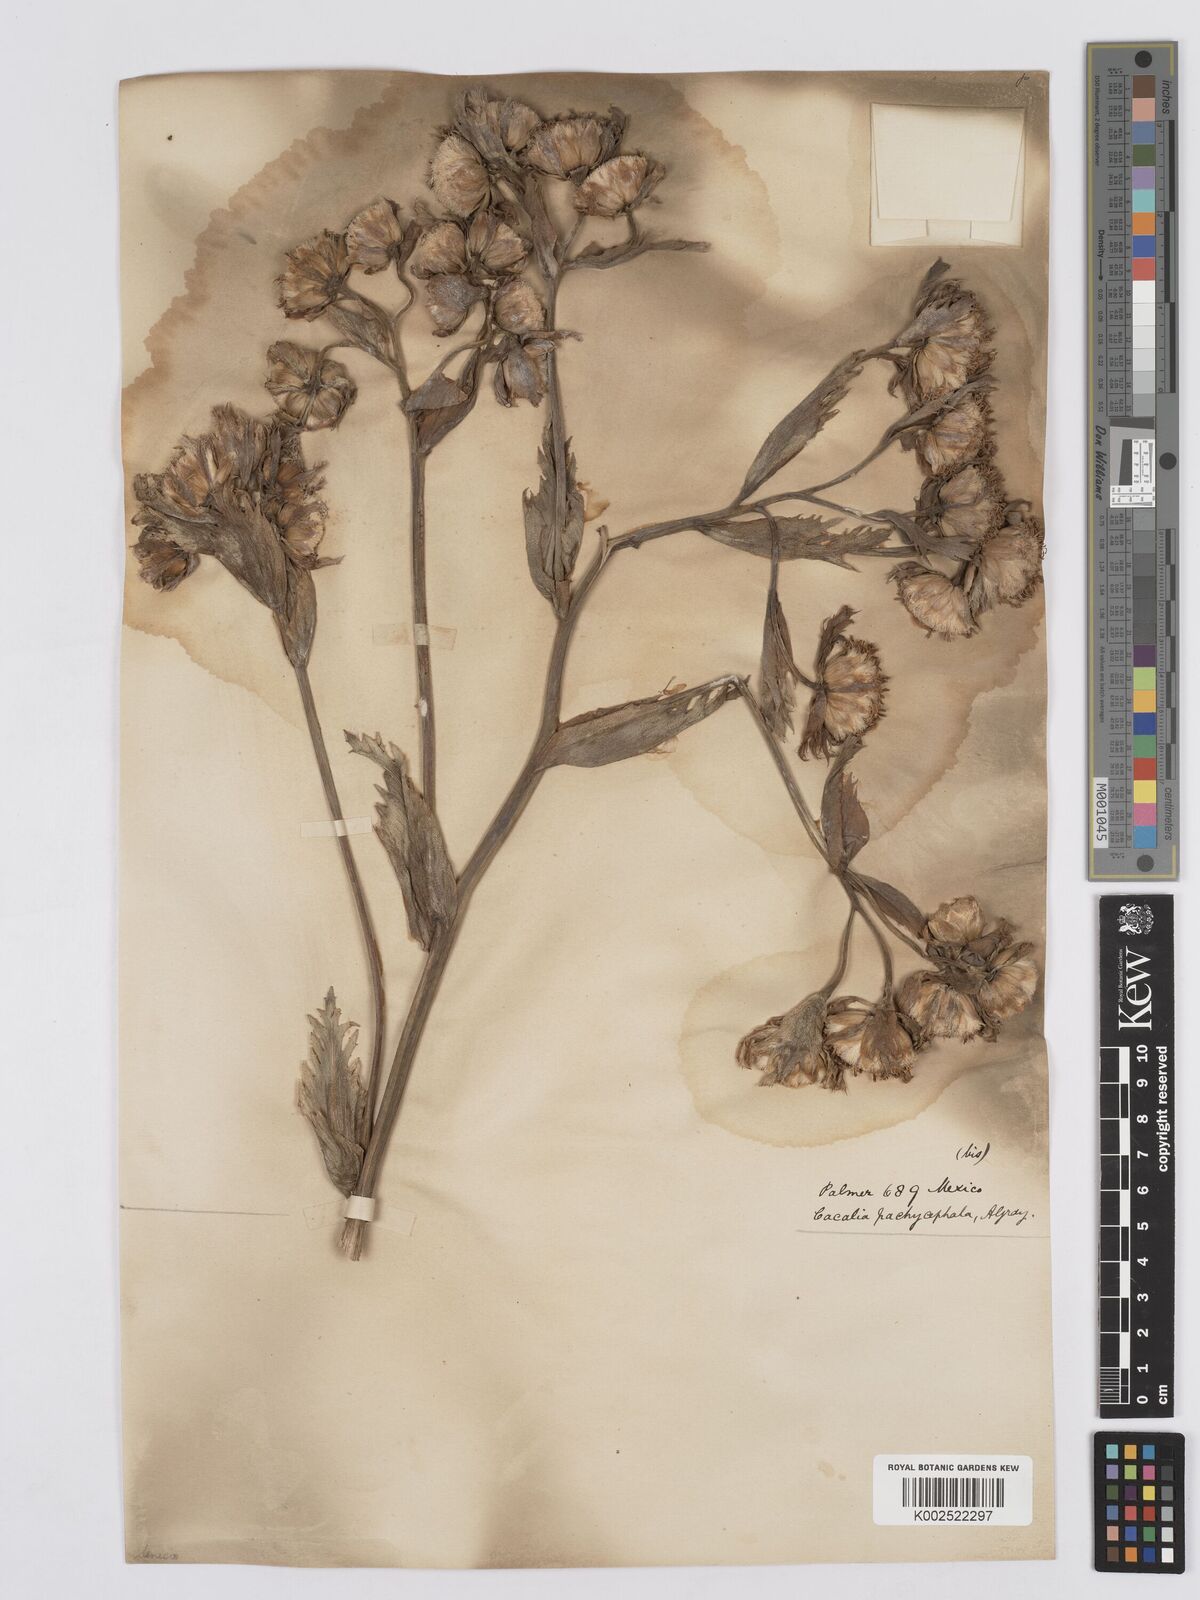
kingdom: Plantae
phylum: Tracheophyta
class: Magnoliopsida
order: Asterales
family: Asteraceae
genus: Psacalium
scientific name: Psacalium radulifolium
